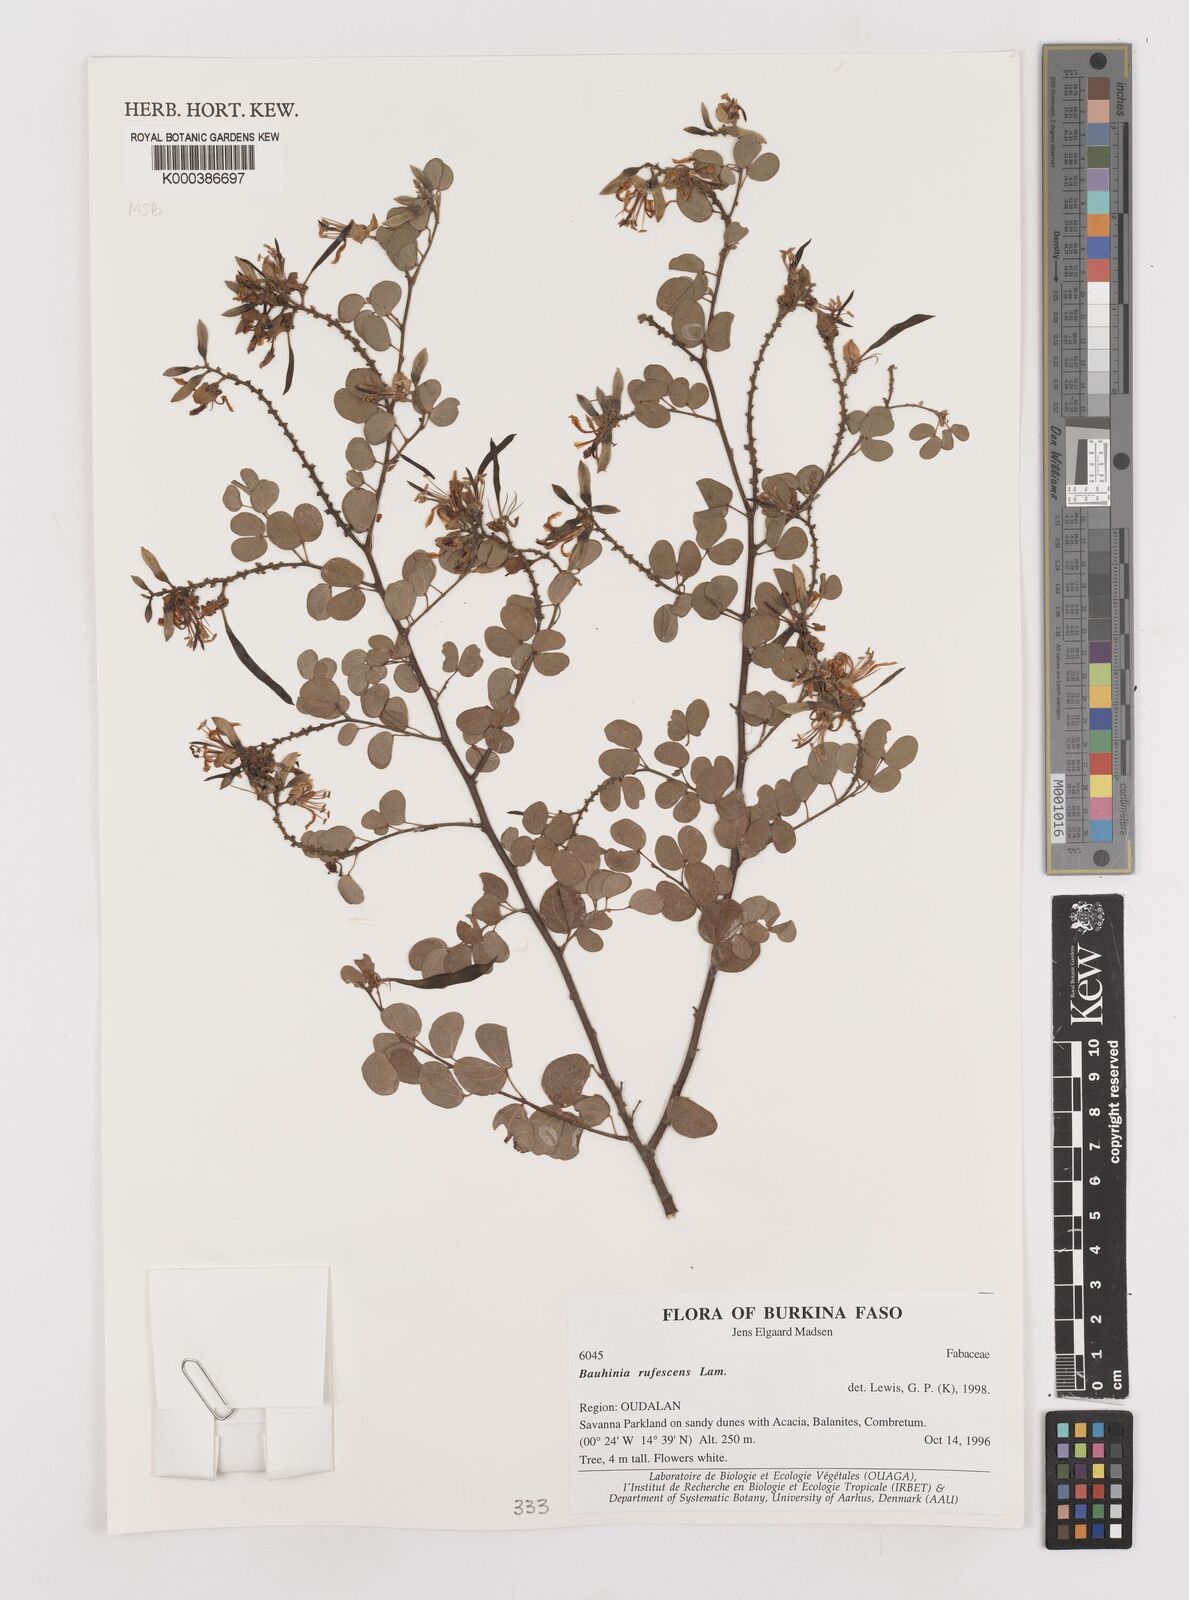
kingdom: Plantae
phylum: Tracheophyta
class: Magnoliopsida
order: Fabales
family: Fabaceae
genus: Bauhinia
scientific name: Bauhinia rufescens
